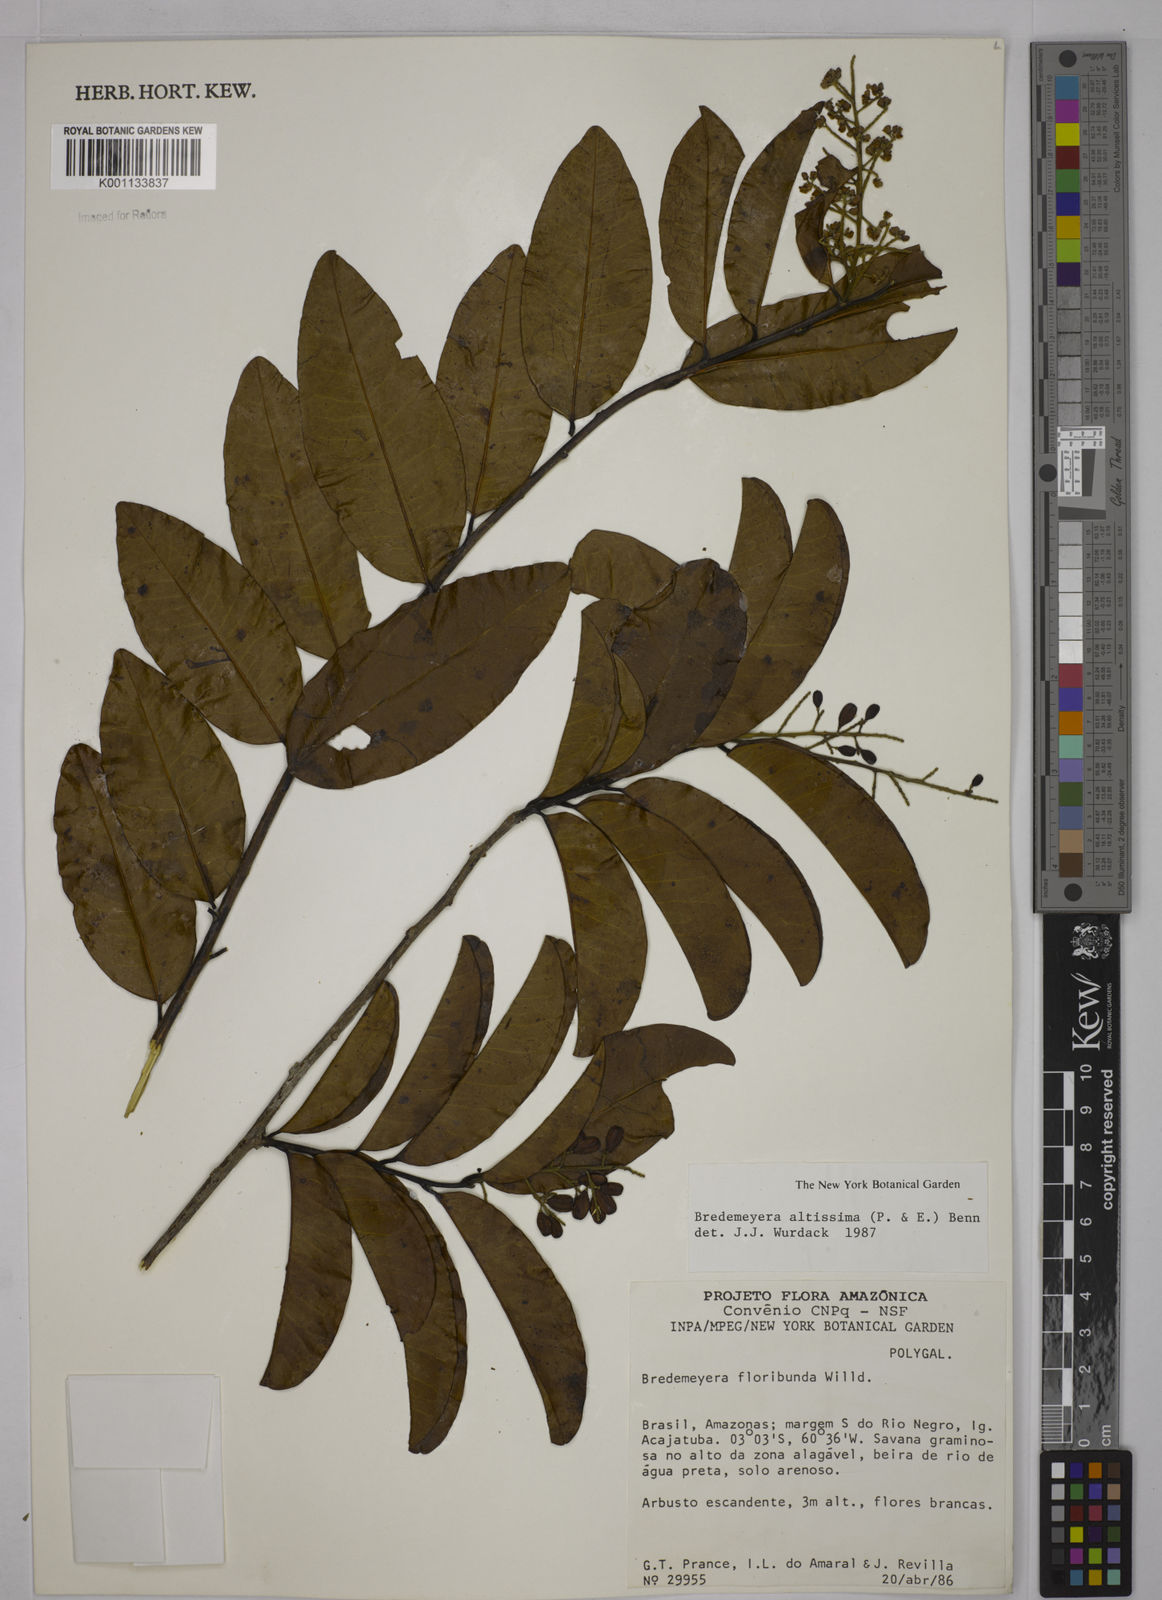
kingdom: Plantae
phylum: Tracheophyta
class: Magnoliopsida
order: Fabales
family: Polygalaceae
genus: Bredemeyera
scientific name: Bredemeyera divaricata
